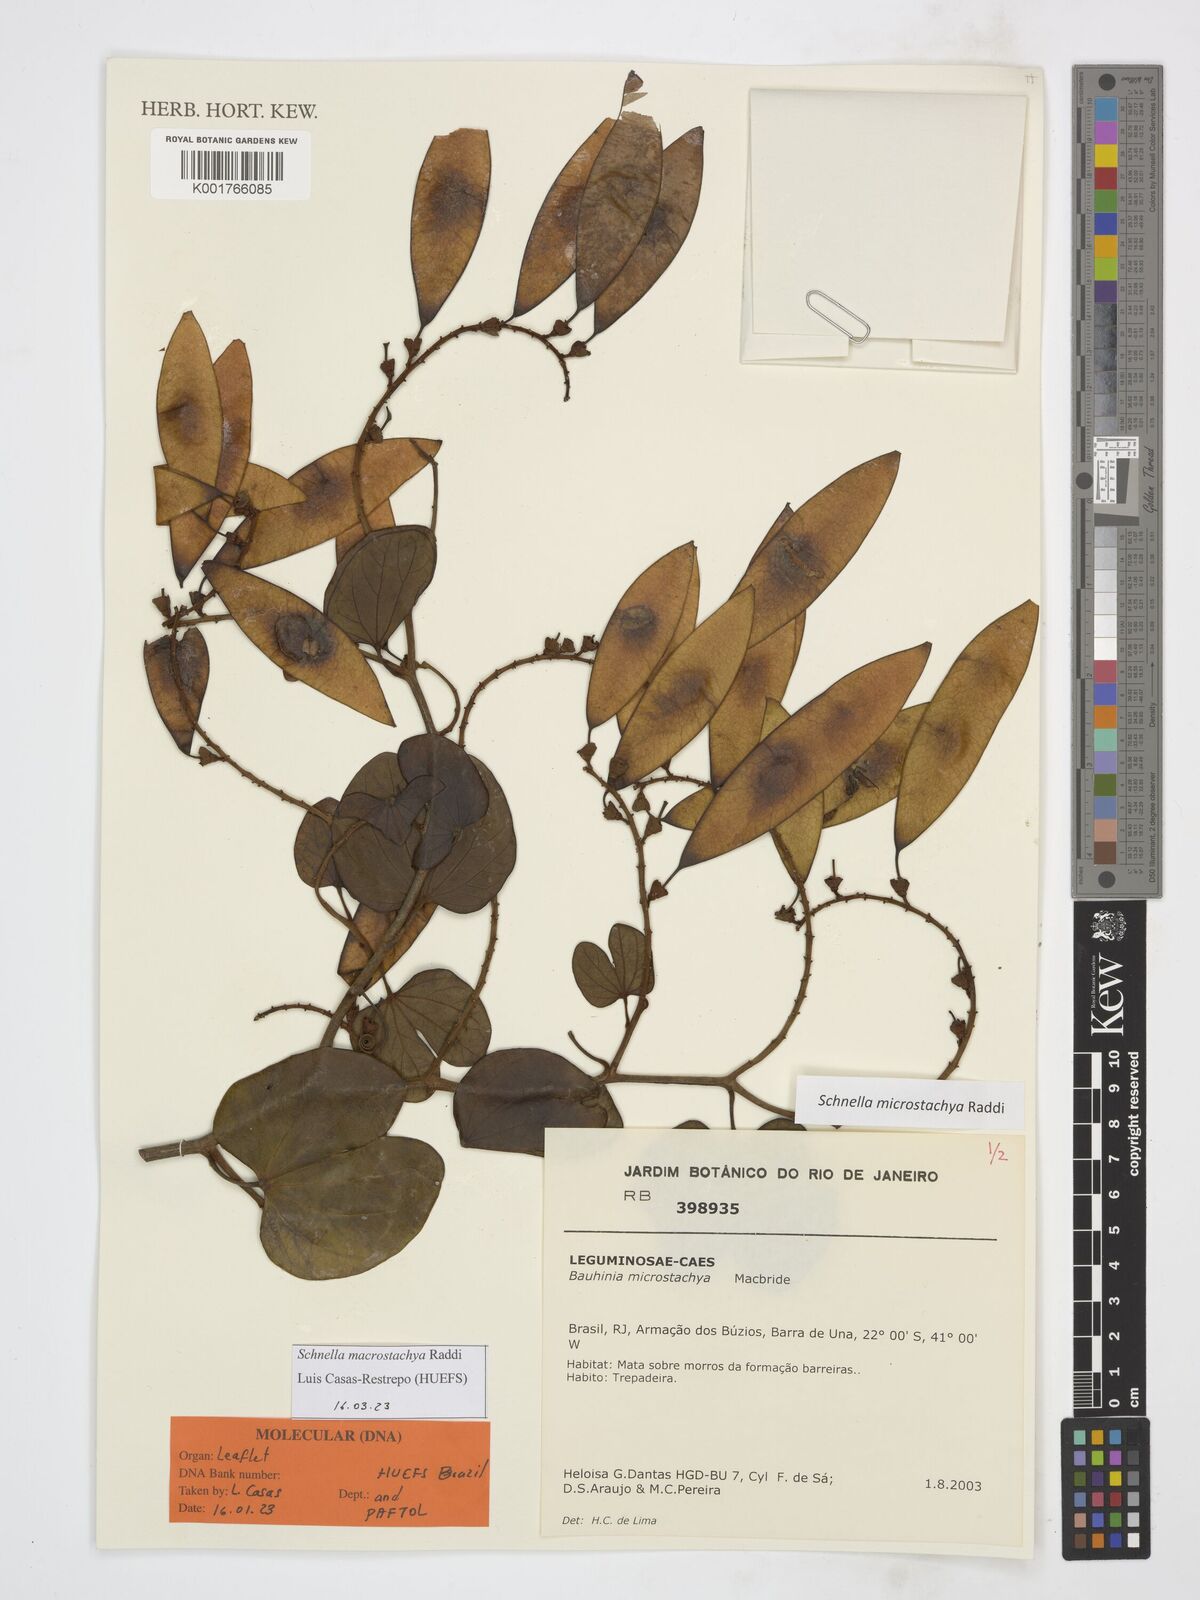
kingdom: Plantae
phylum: Tracheophyta
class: Magnoliopsida
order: Fabales
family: Fabaceae
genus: Schnella
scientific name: Schnella macrostachya
